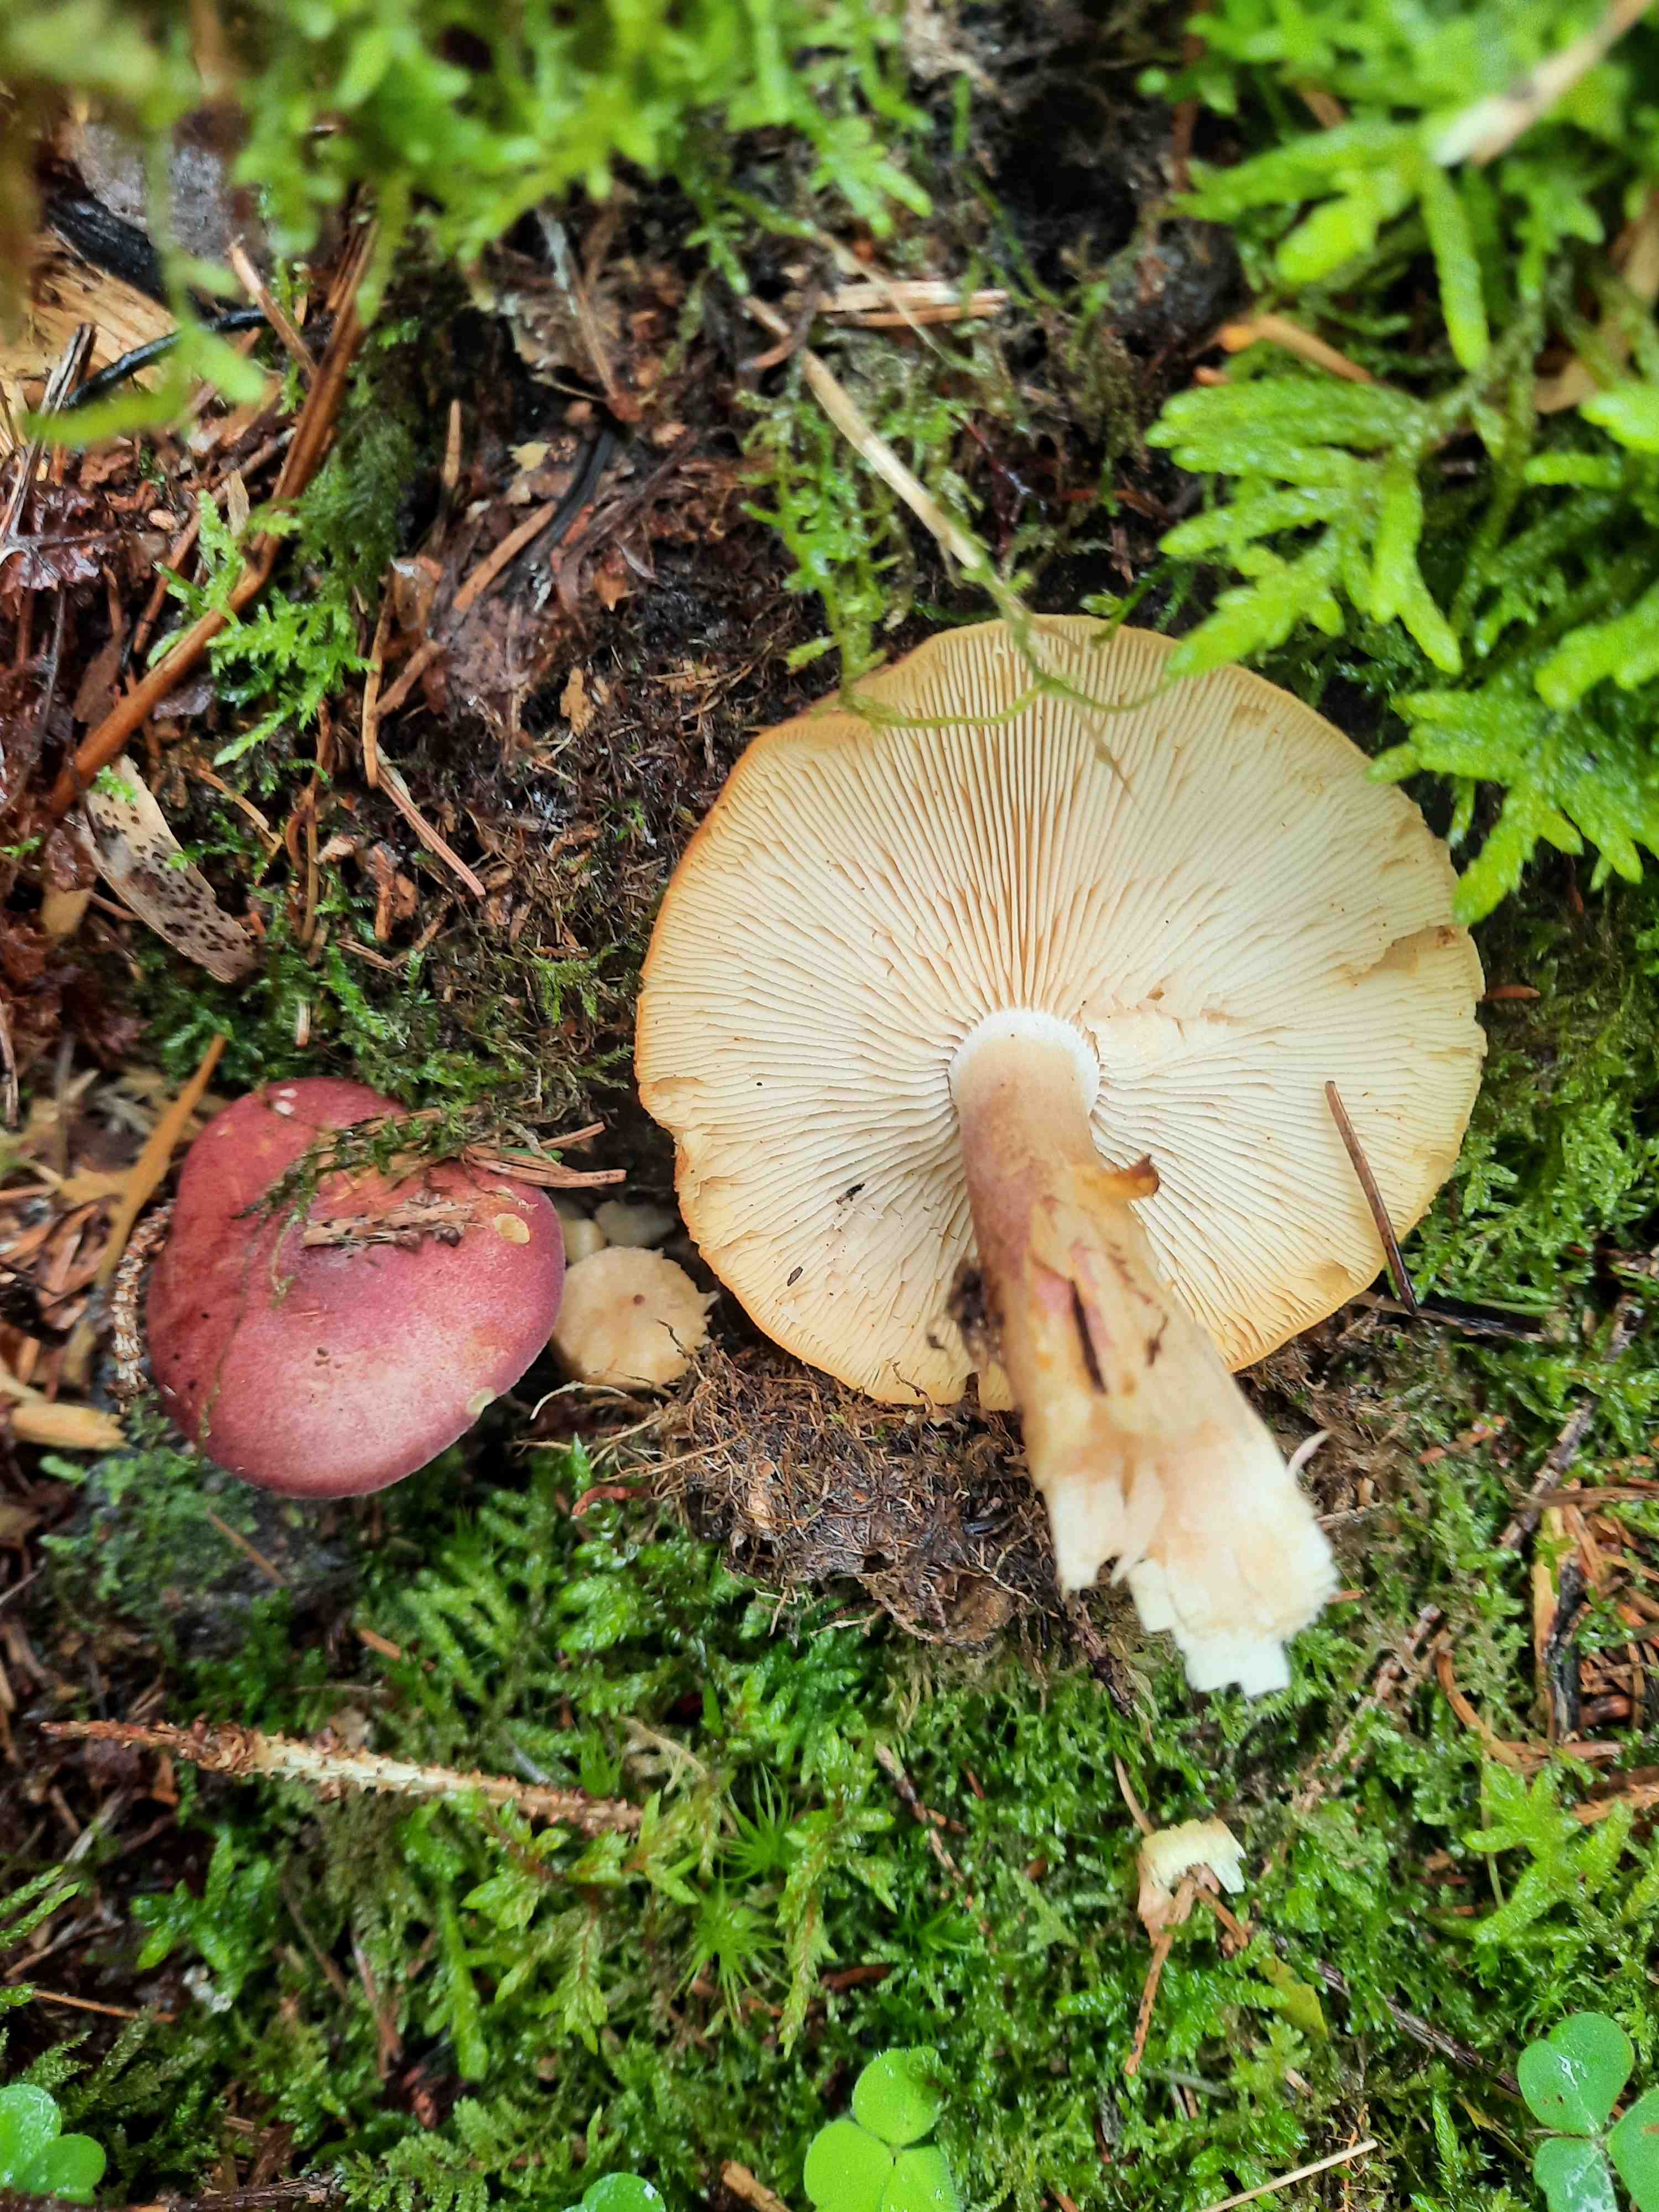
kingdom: Fungi
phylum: Basidiomycota
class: Agaricomycetes
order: Agaricales
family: Tricholomataceae
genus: Tricholomopsis
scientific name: Tricholomopsis rutilans
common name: purpur-væbnerhat
